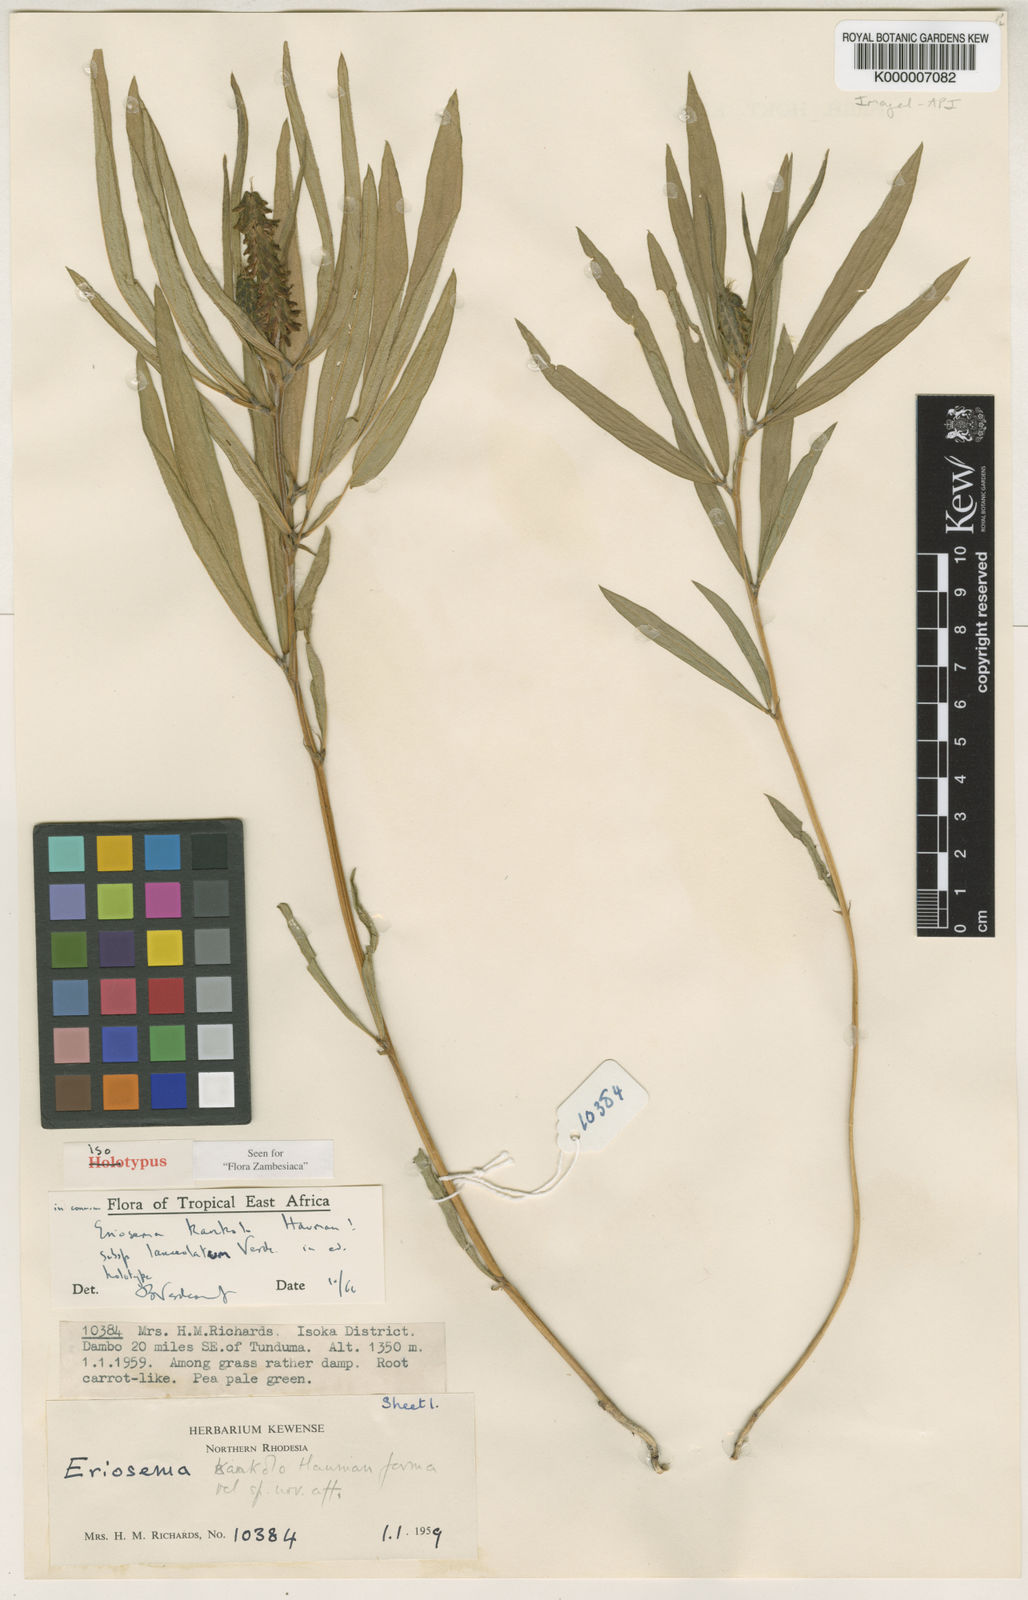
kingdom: Plantae
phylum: Tracheophyta
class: Magnoliopsida
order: Fabales
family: Fabaceae
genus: Eriosema
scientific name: Eriosema kankolo
